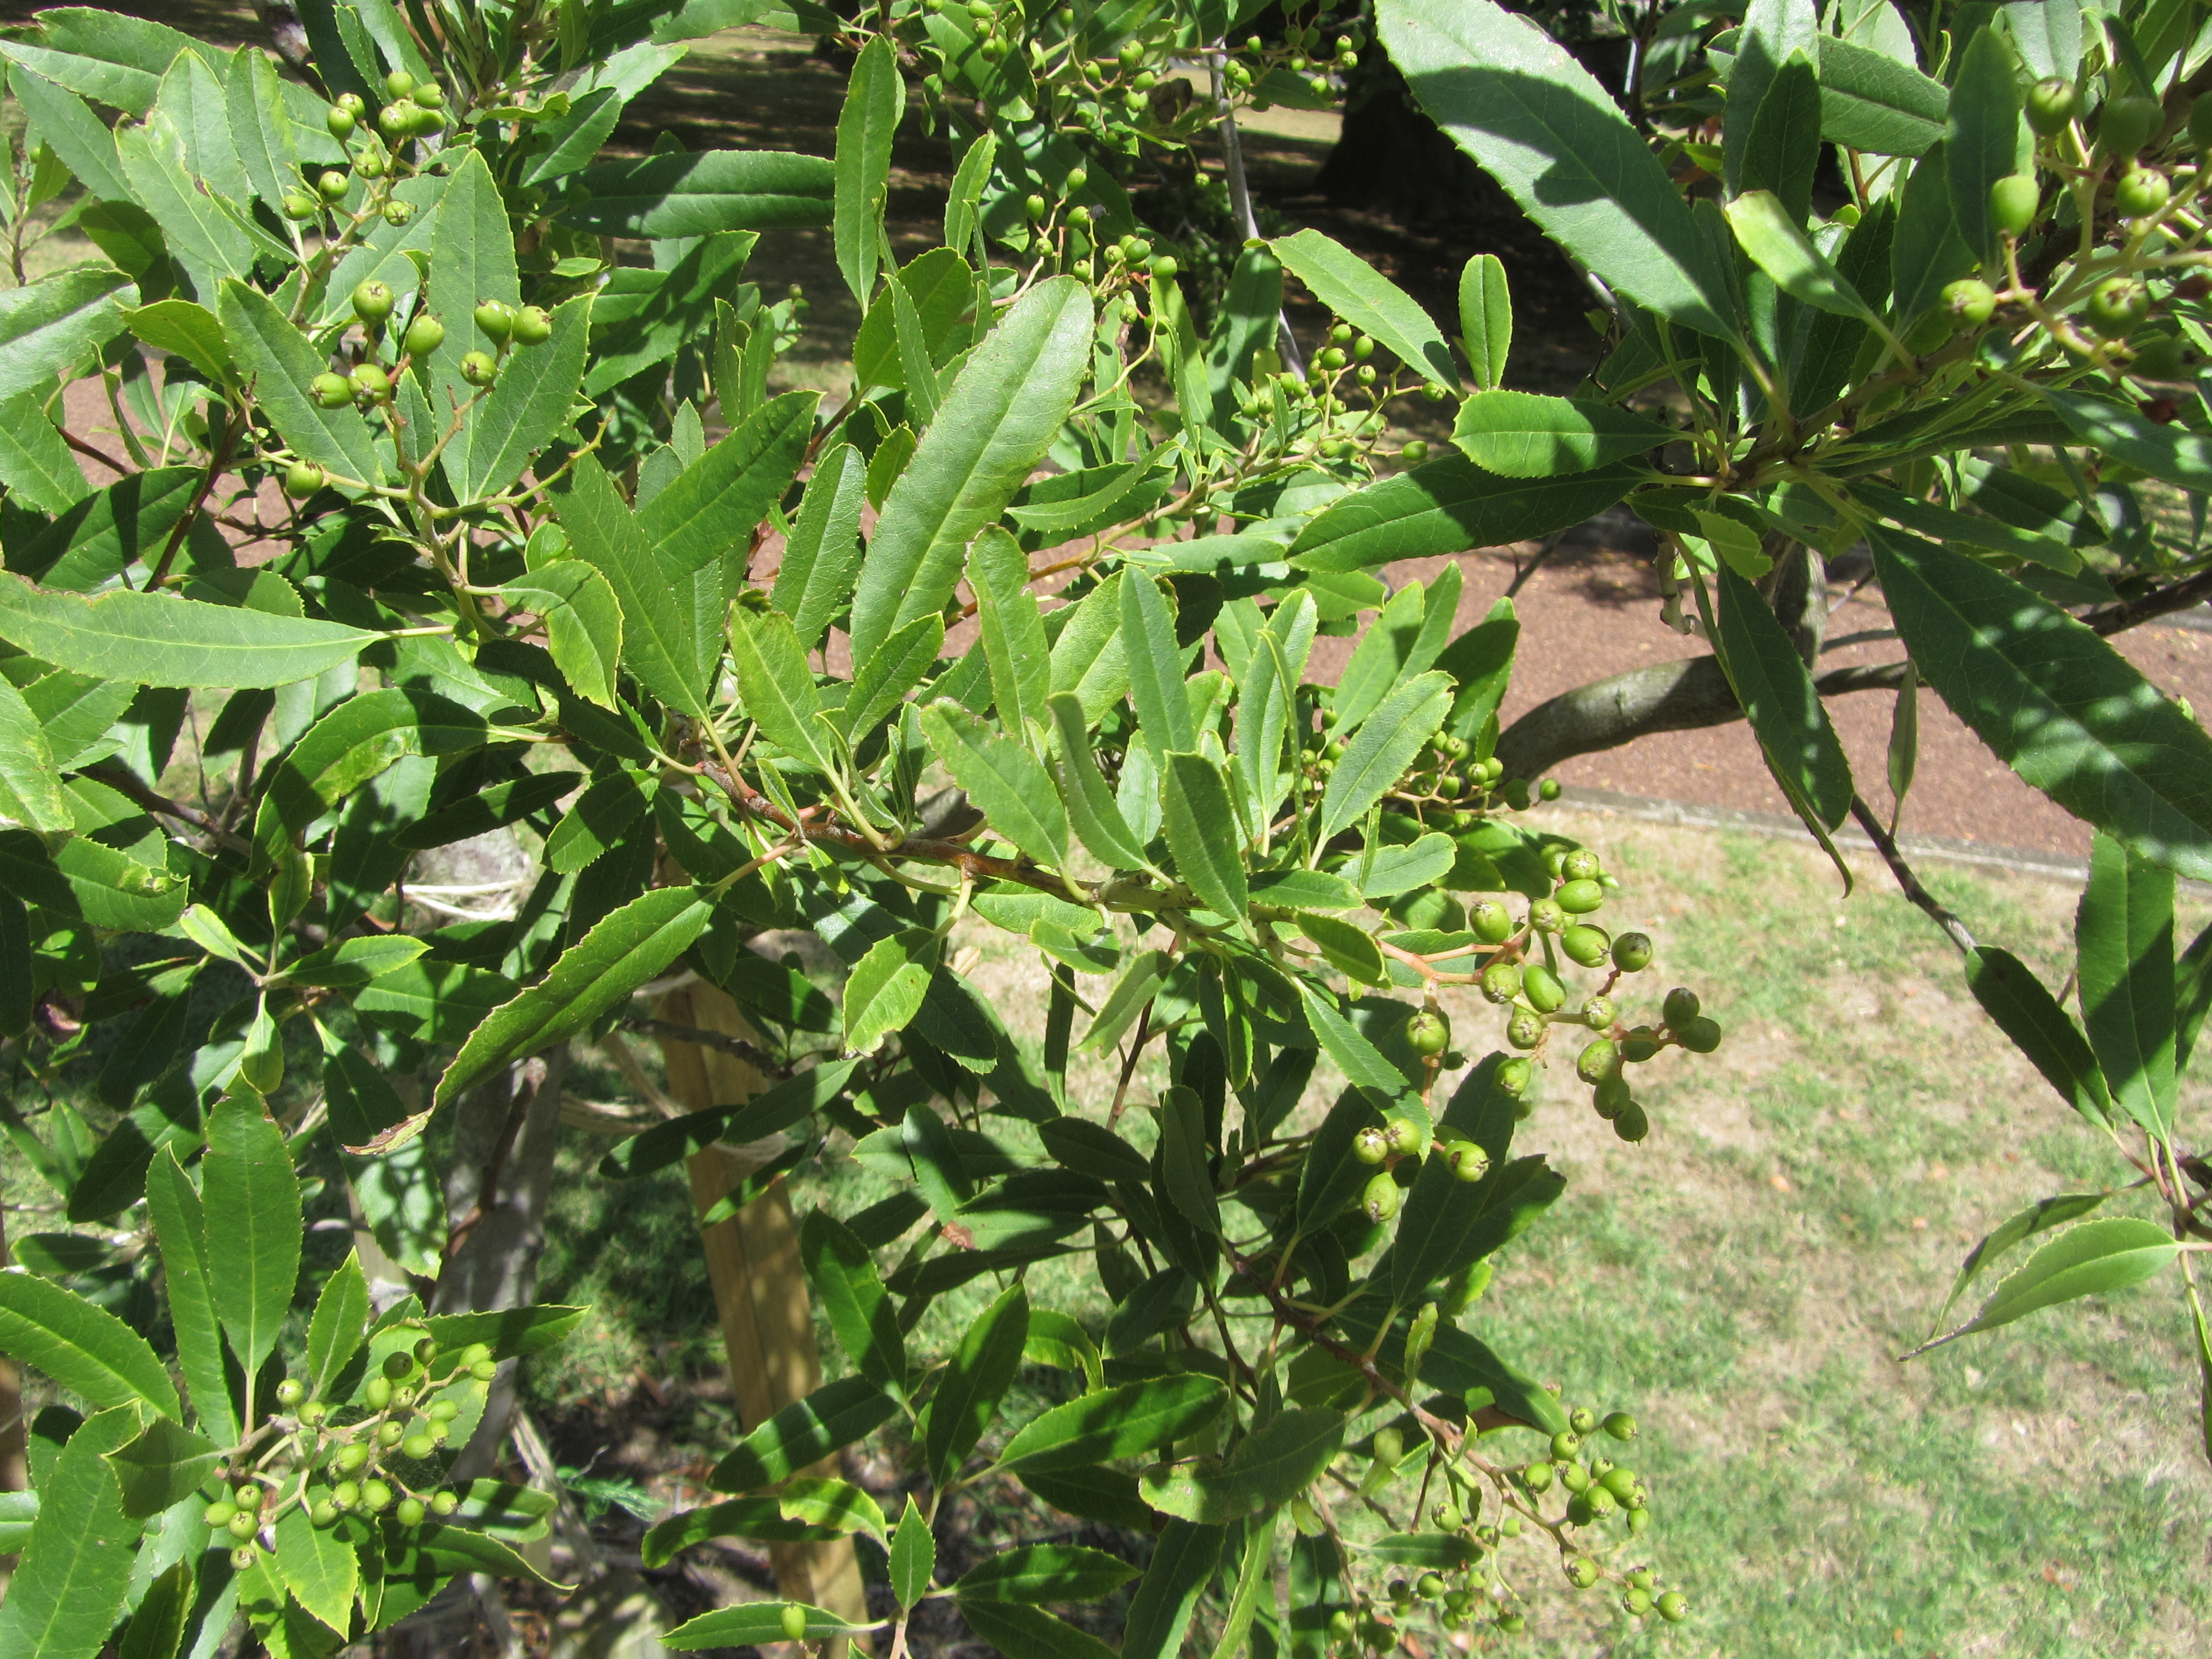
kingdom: Plantae
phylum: Tracheophyta
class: Magnoliopsida
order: Rosales
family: Rosaceae
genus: Heteromeles
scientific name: Heteromeles arbutifolia
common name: California-holly
